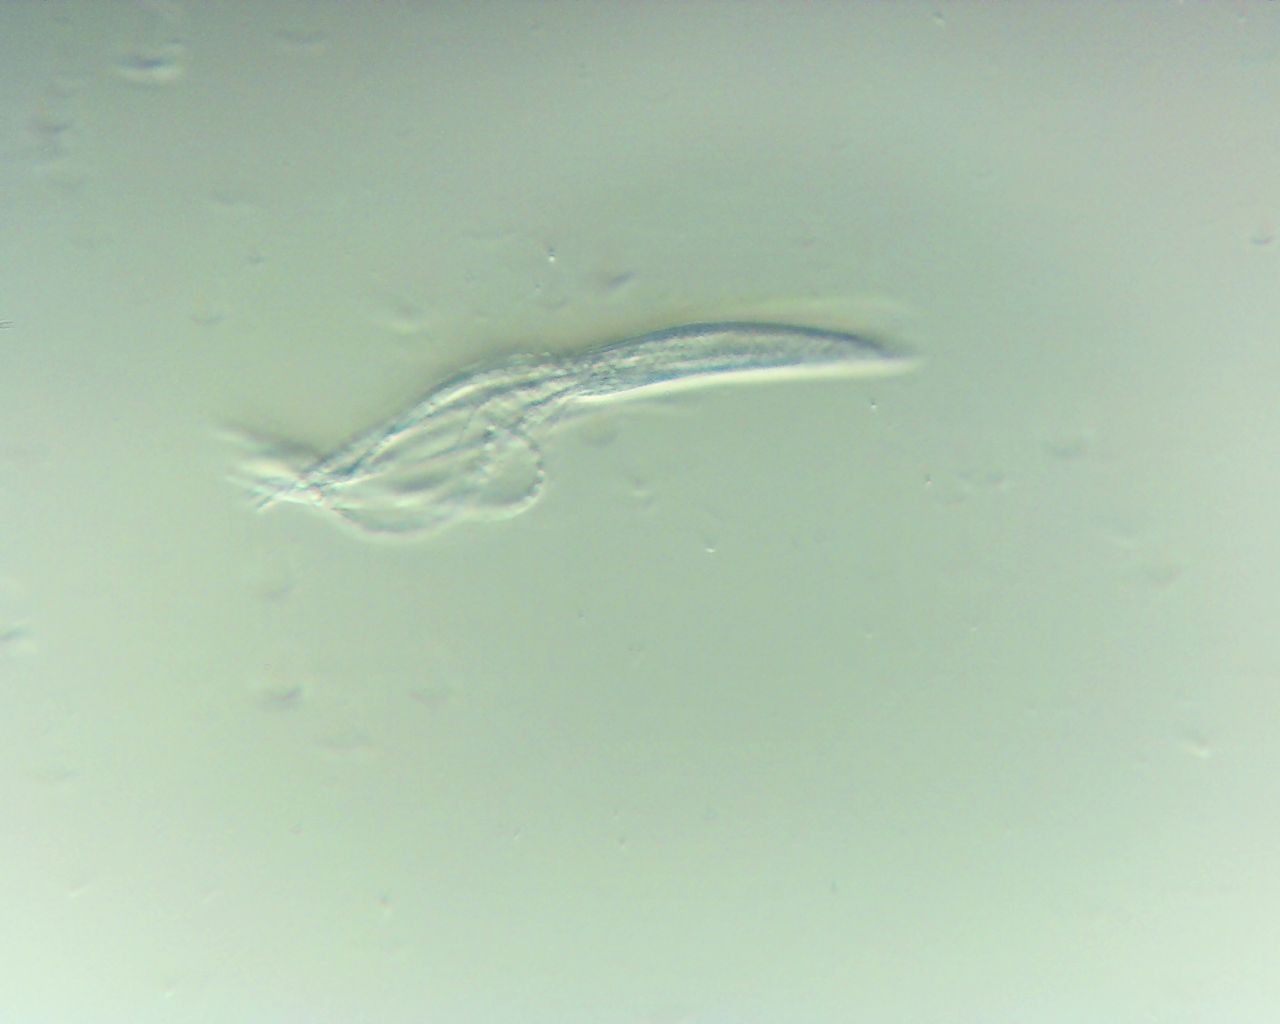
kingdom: Fungi
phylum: Ascomycota
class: Leotiomycetes
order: Rhytismatales
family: Rhytismataceae
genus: Lophodermium
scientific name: Lophodermium pinastri
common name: fyrre-fureplet
